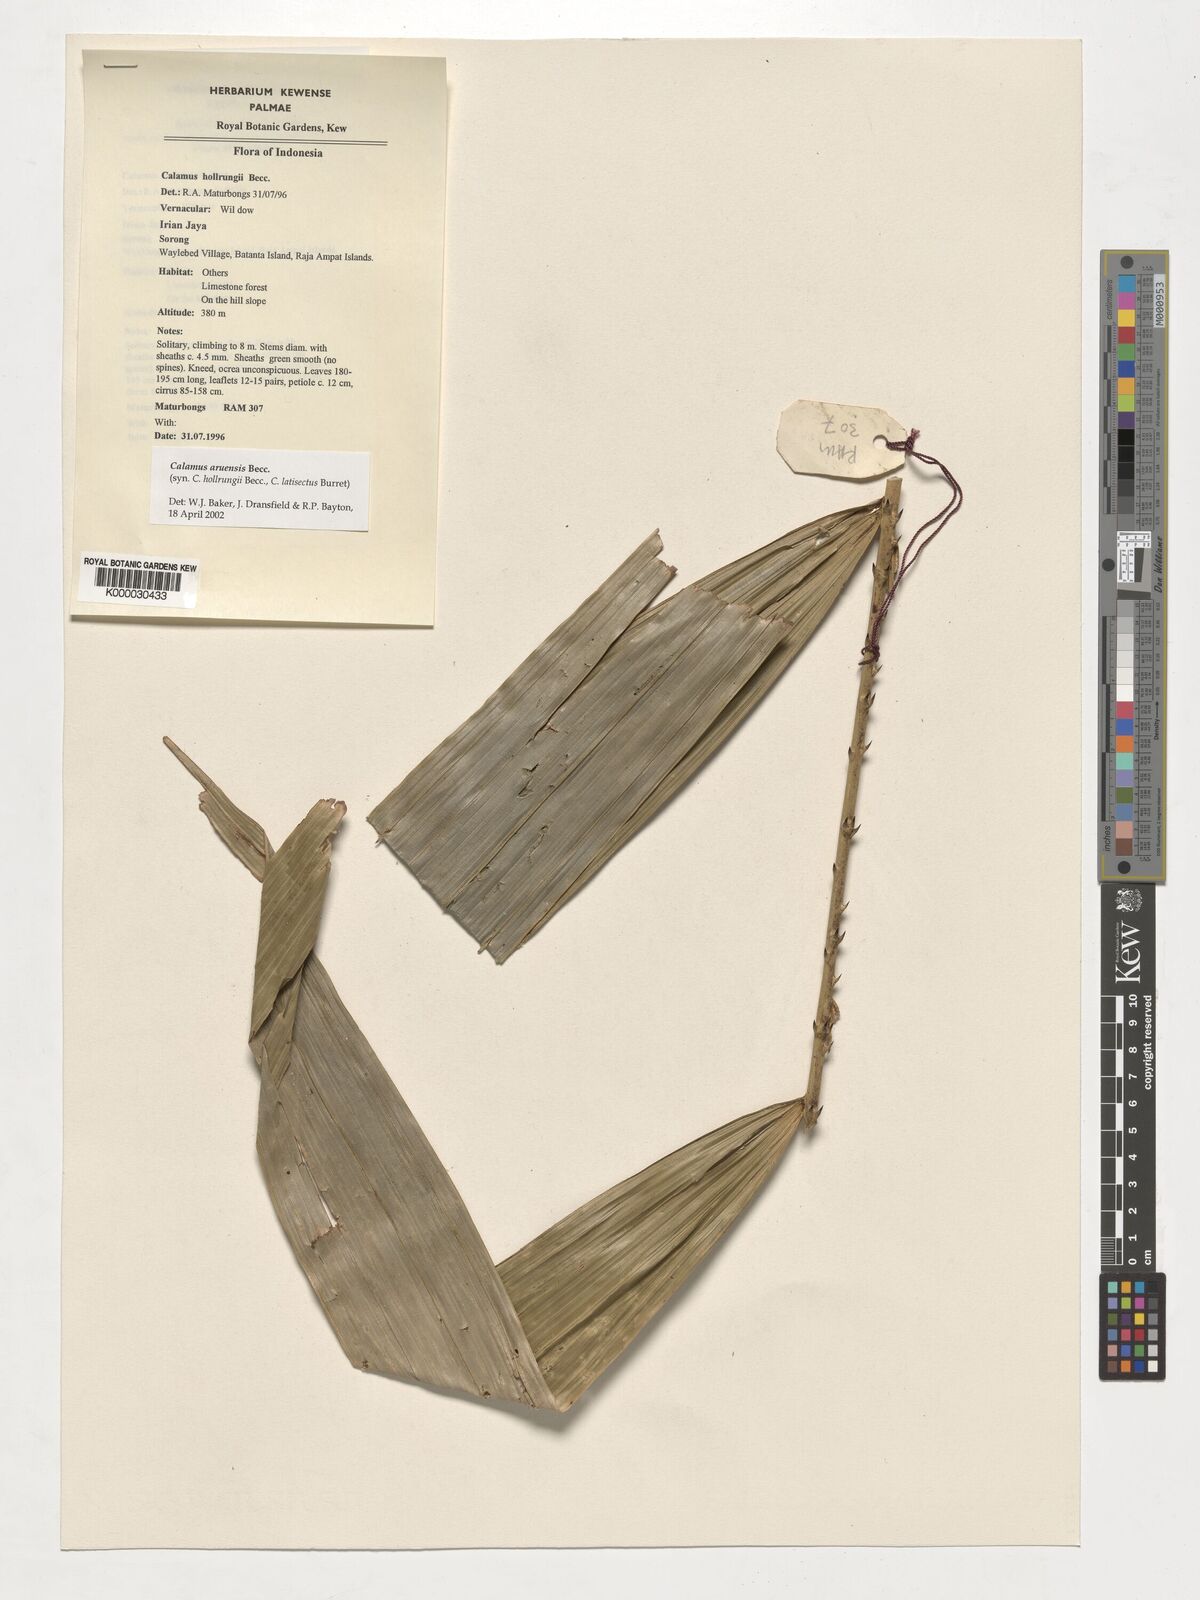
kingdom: Plantae
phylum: Tracheophyta
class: Liliopsida
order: Arecales
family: Arecaceae
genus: Calamus
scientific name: Calamus aruensis
